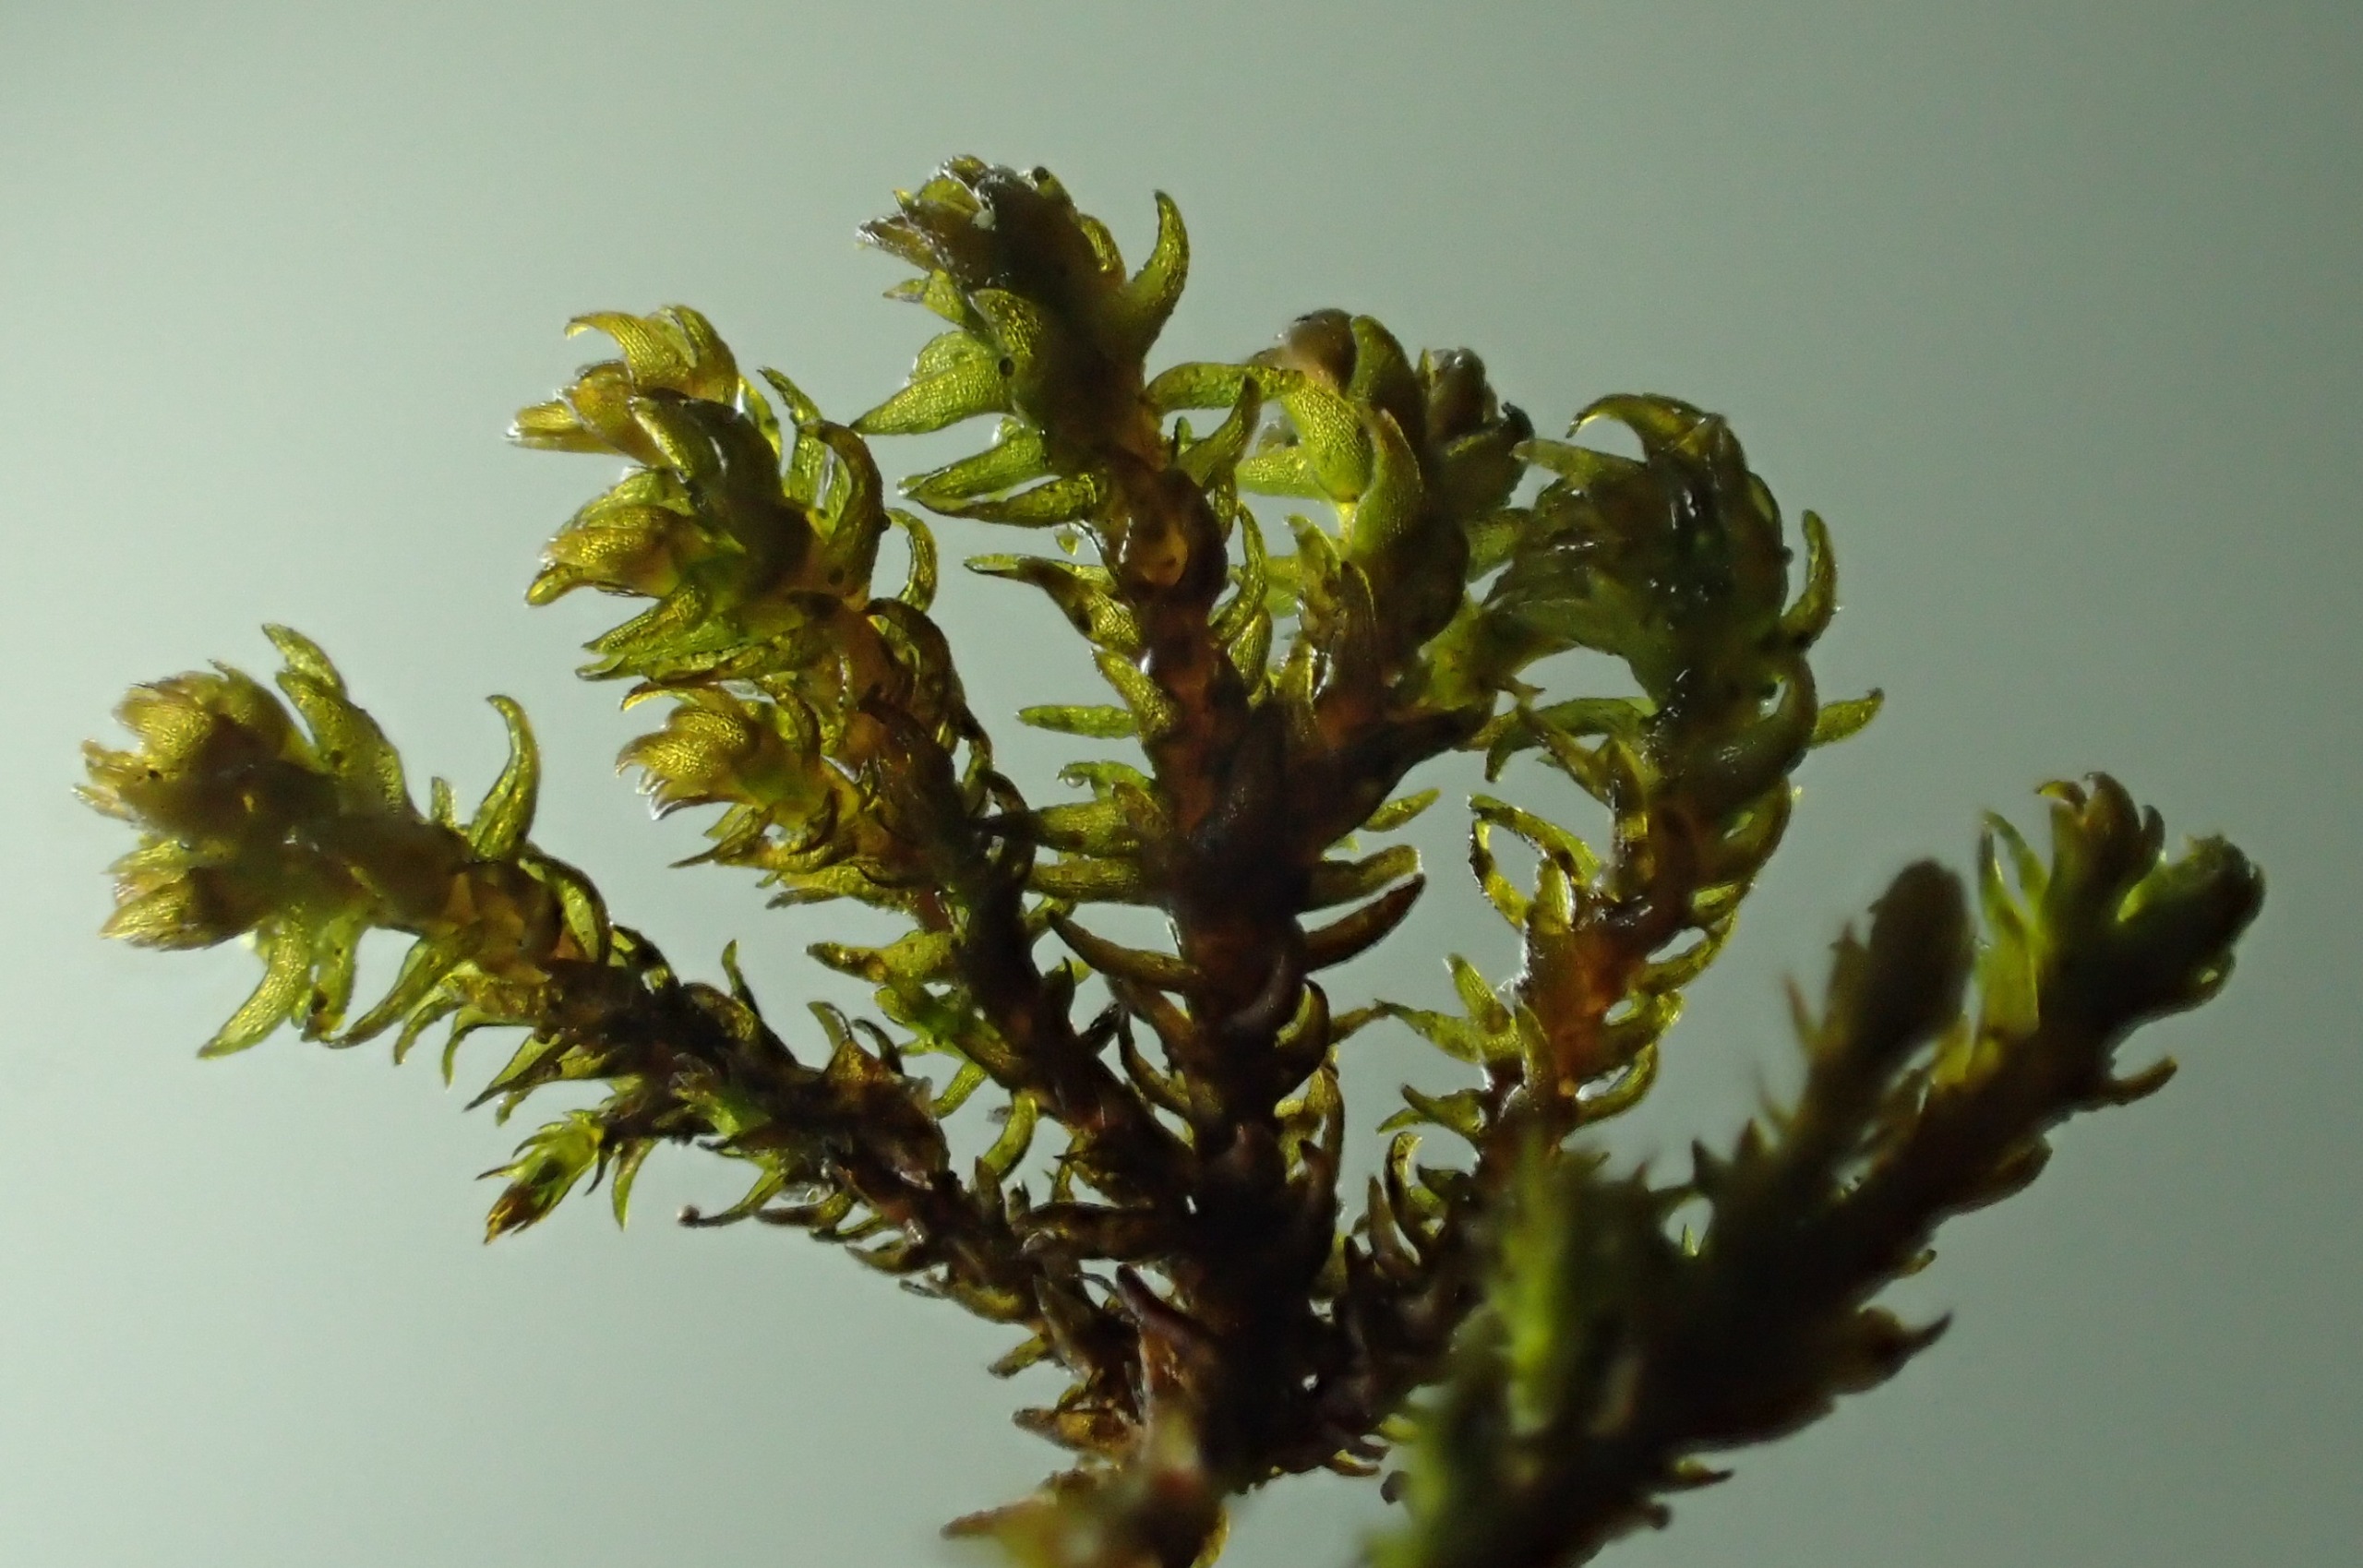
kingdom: Plantae
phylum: Bryophyta
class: Andreaeopsida
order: Andreaeales
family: Andreaeaceae
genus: Andreaea
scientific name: Andreaea rupestris
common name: Lille sortmos
